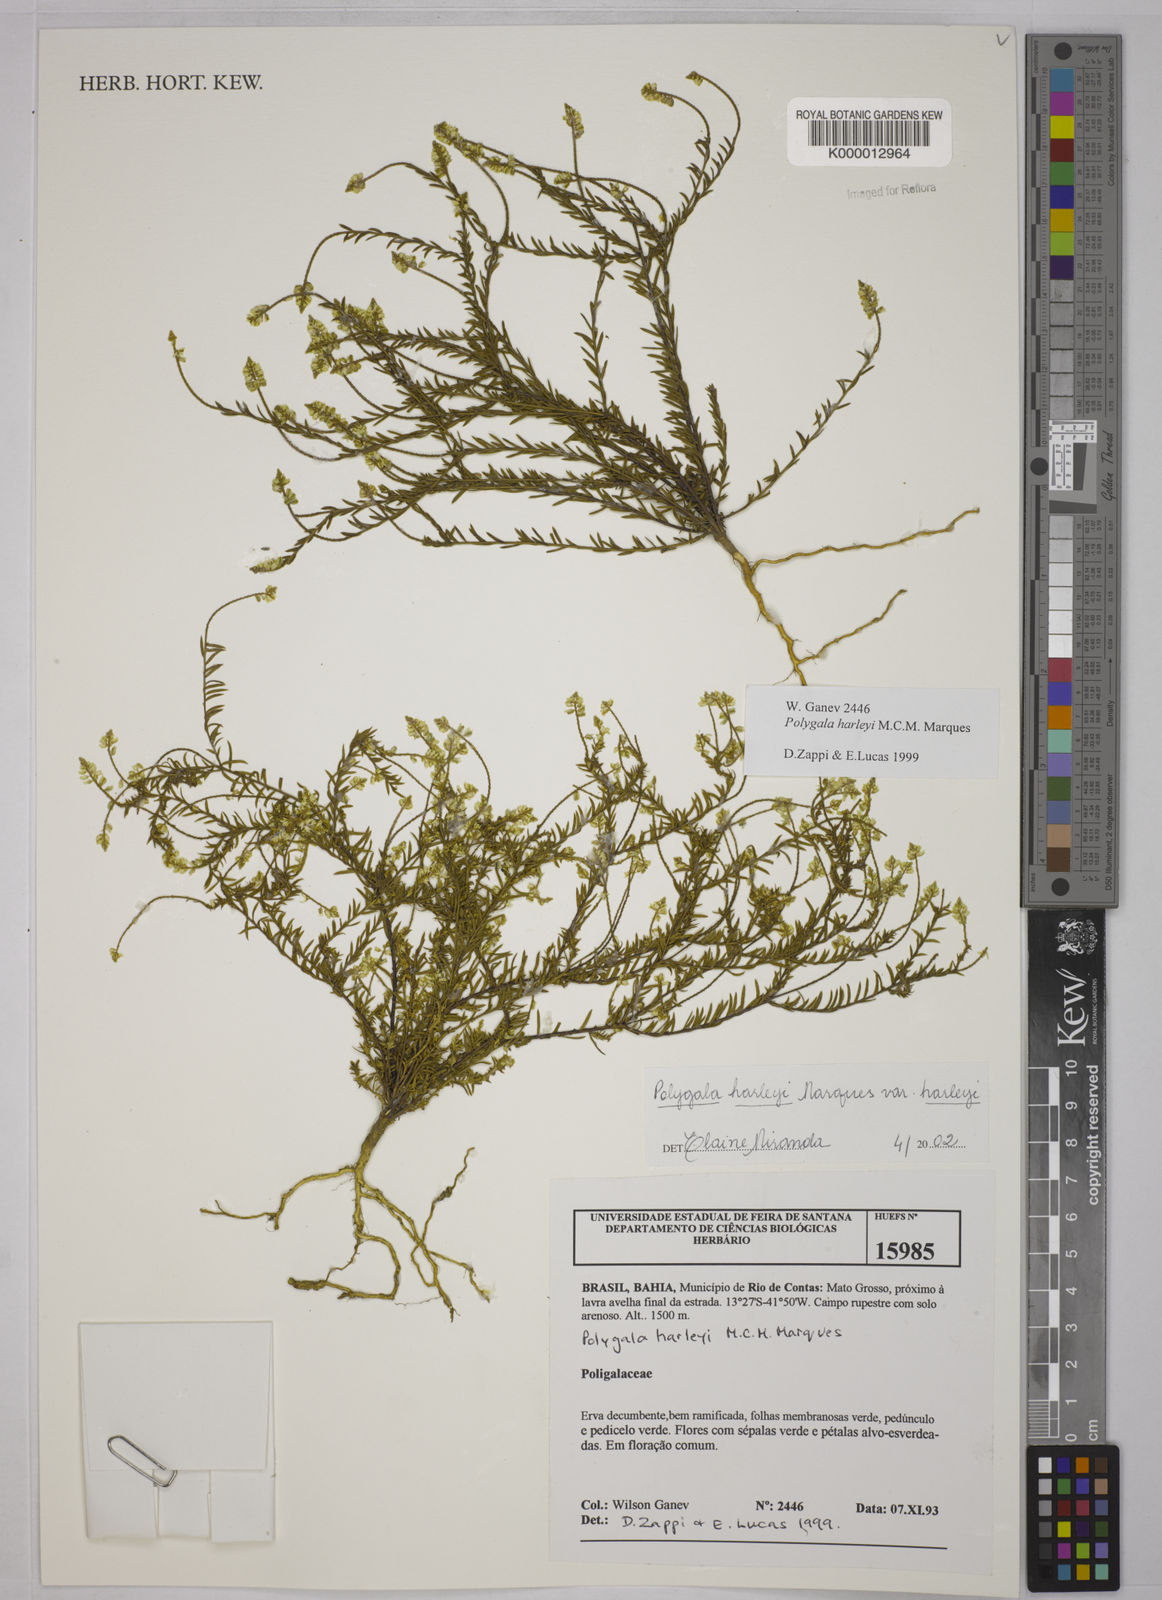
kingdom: Plantae
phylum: Tracheophyta
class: Magnoliopsida
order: Fabales
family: Polygalaceae
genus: Polygala
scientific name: Polygala
